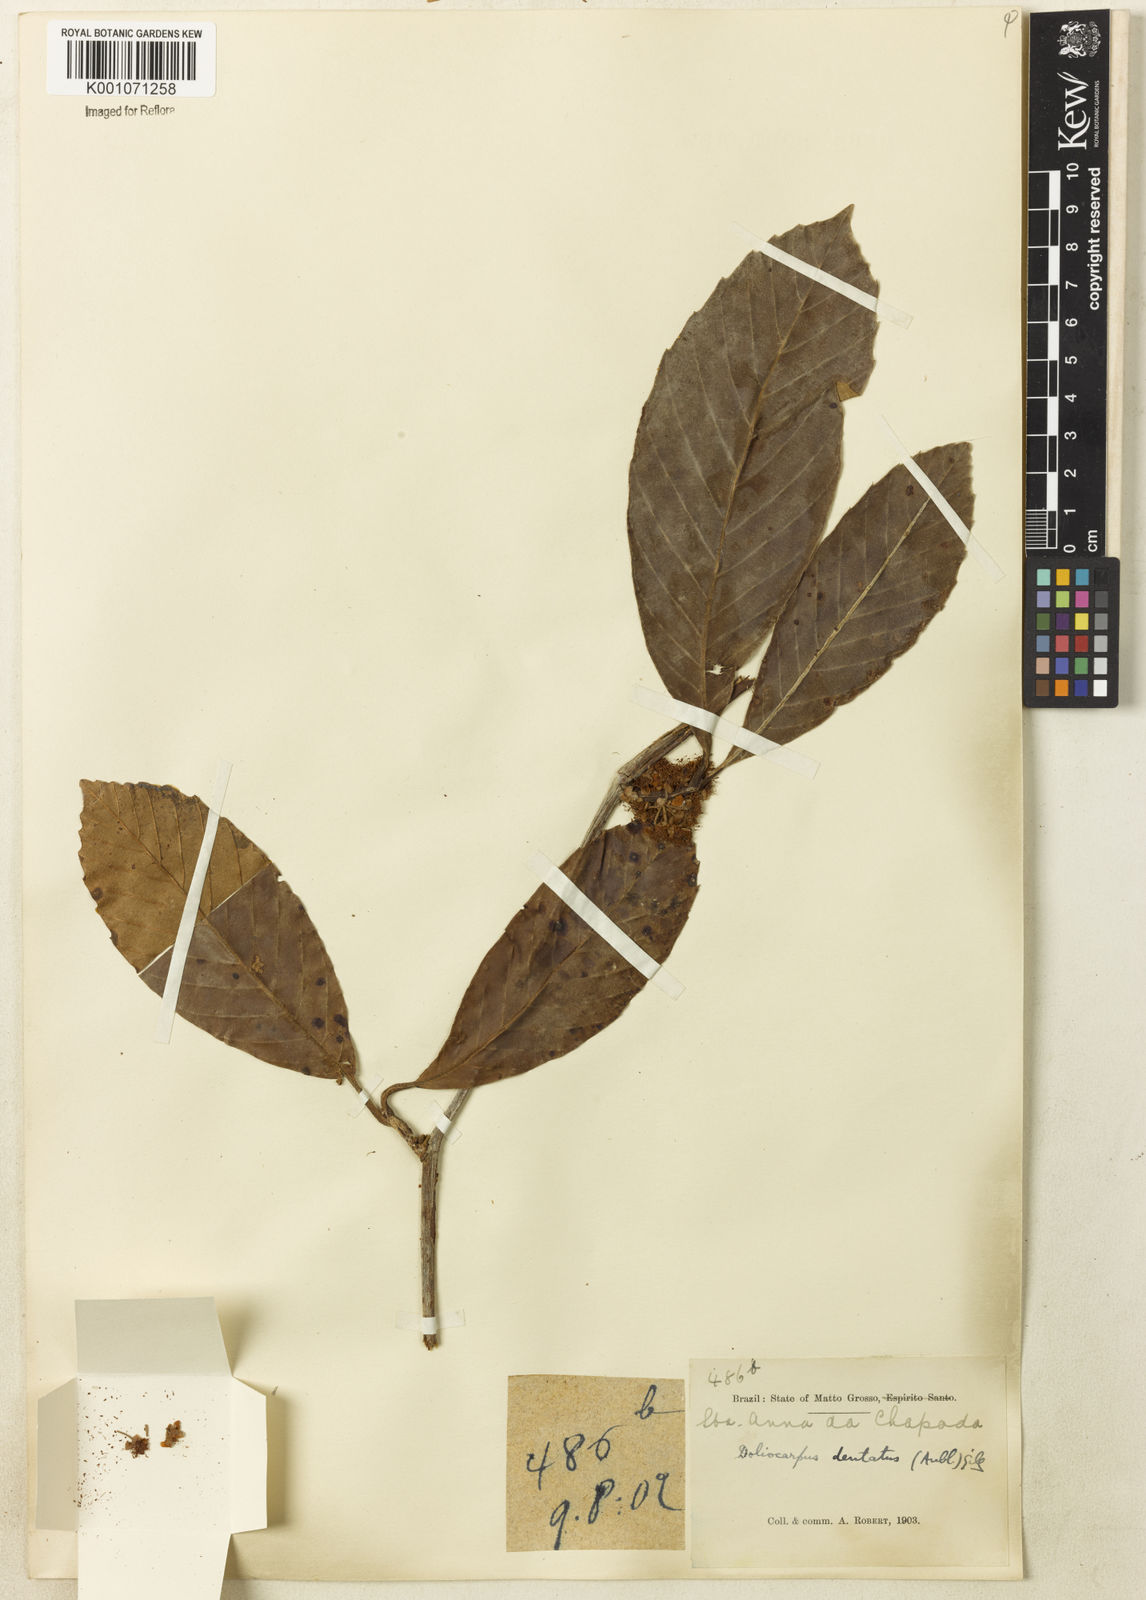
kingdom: Plantae
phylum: Tracheophyta
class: Magnoliopsida
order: Dilleniales
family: Dilleniaceae
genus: Doliocarpus
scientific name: Doliocarpus dentatus
